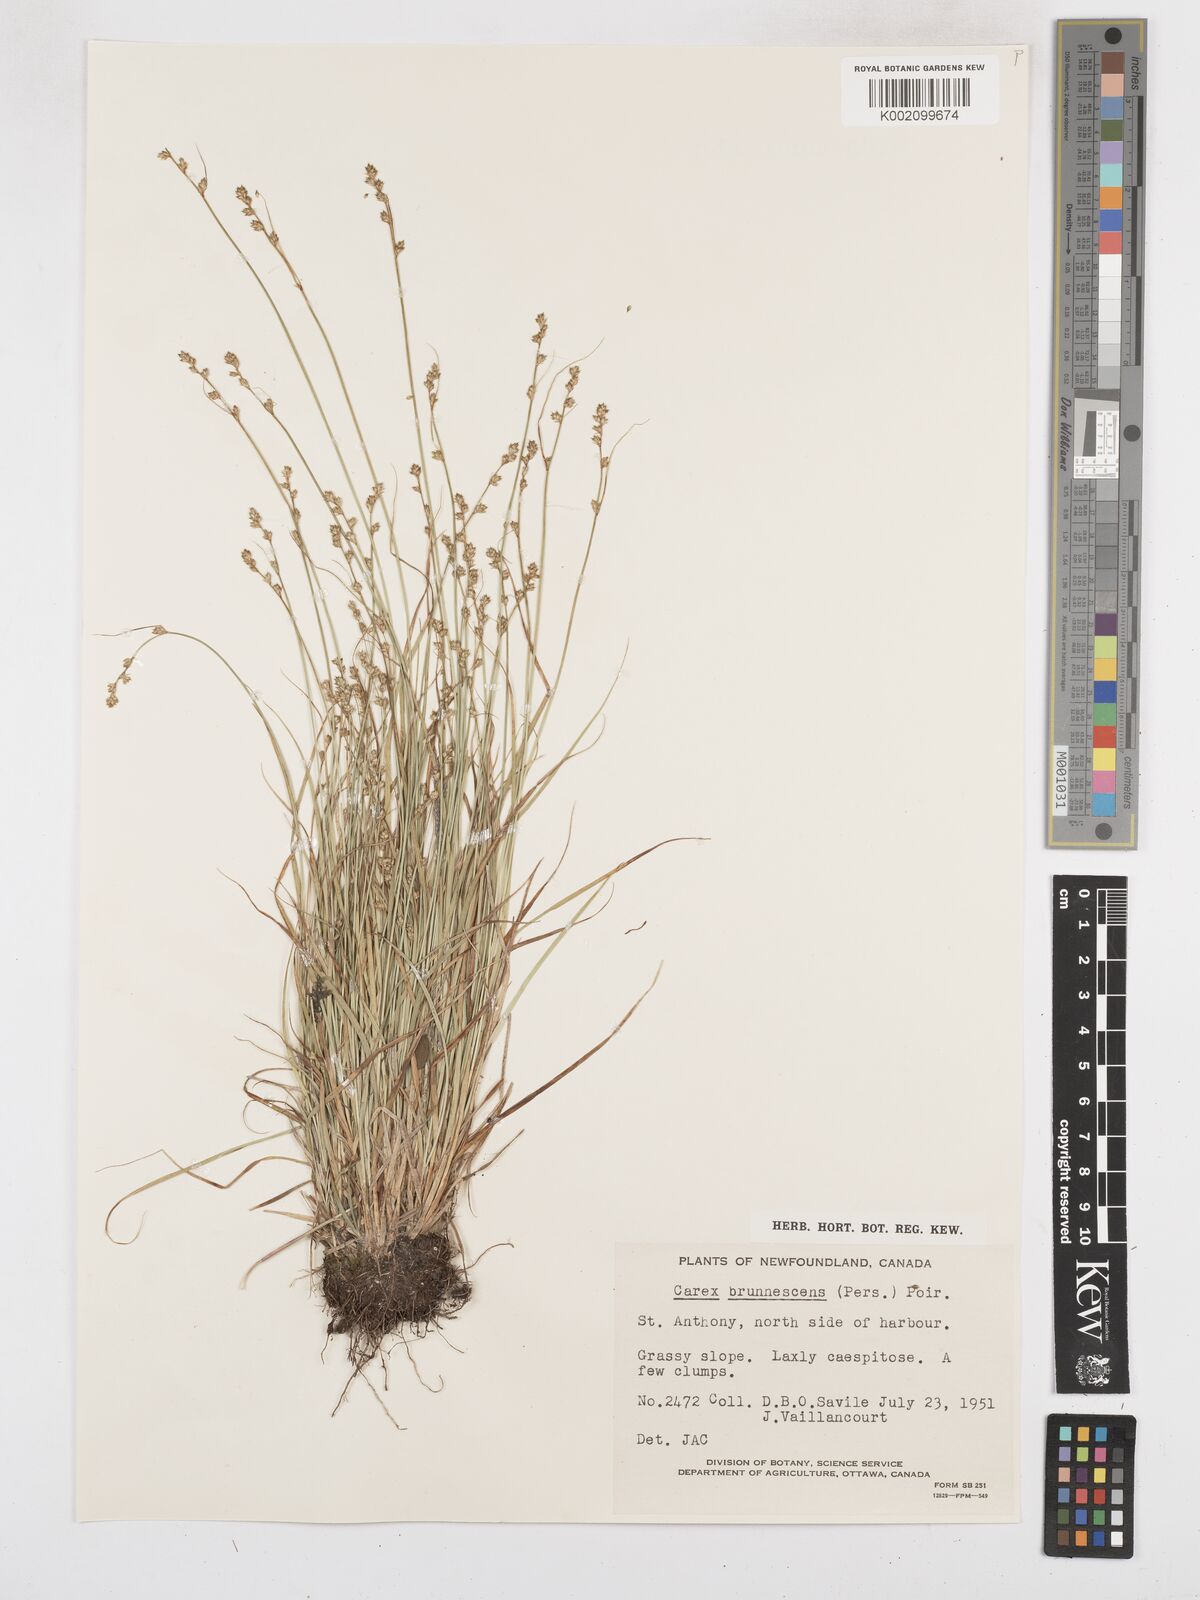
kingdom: Plantae
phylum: Tracheophyta
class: Liliopsida
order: Poales
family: Cyperaceae
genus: Carex
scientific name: Carex brunnescens
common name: Brown sedge
